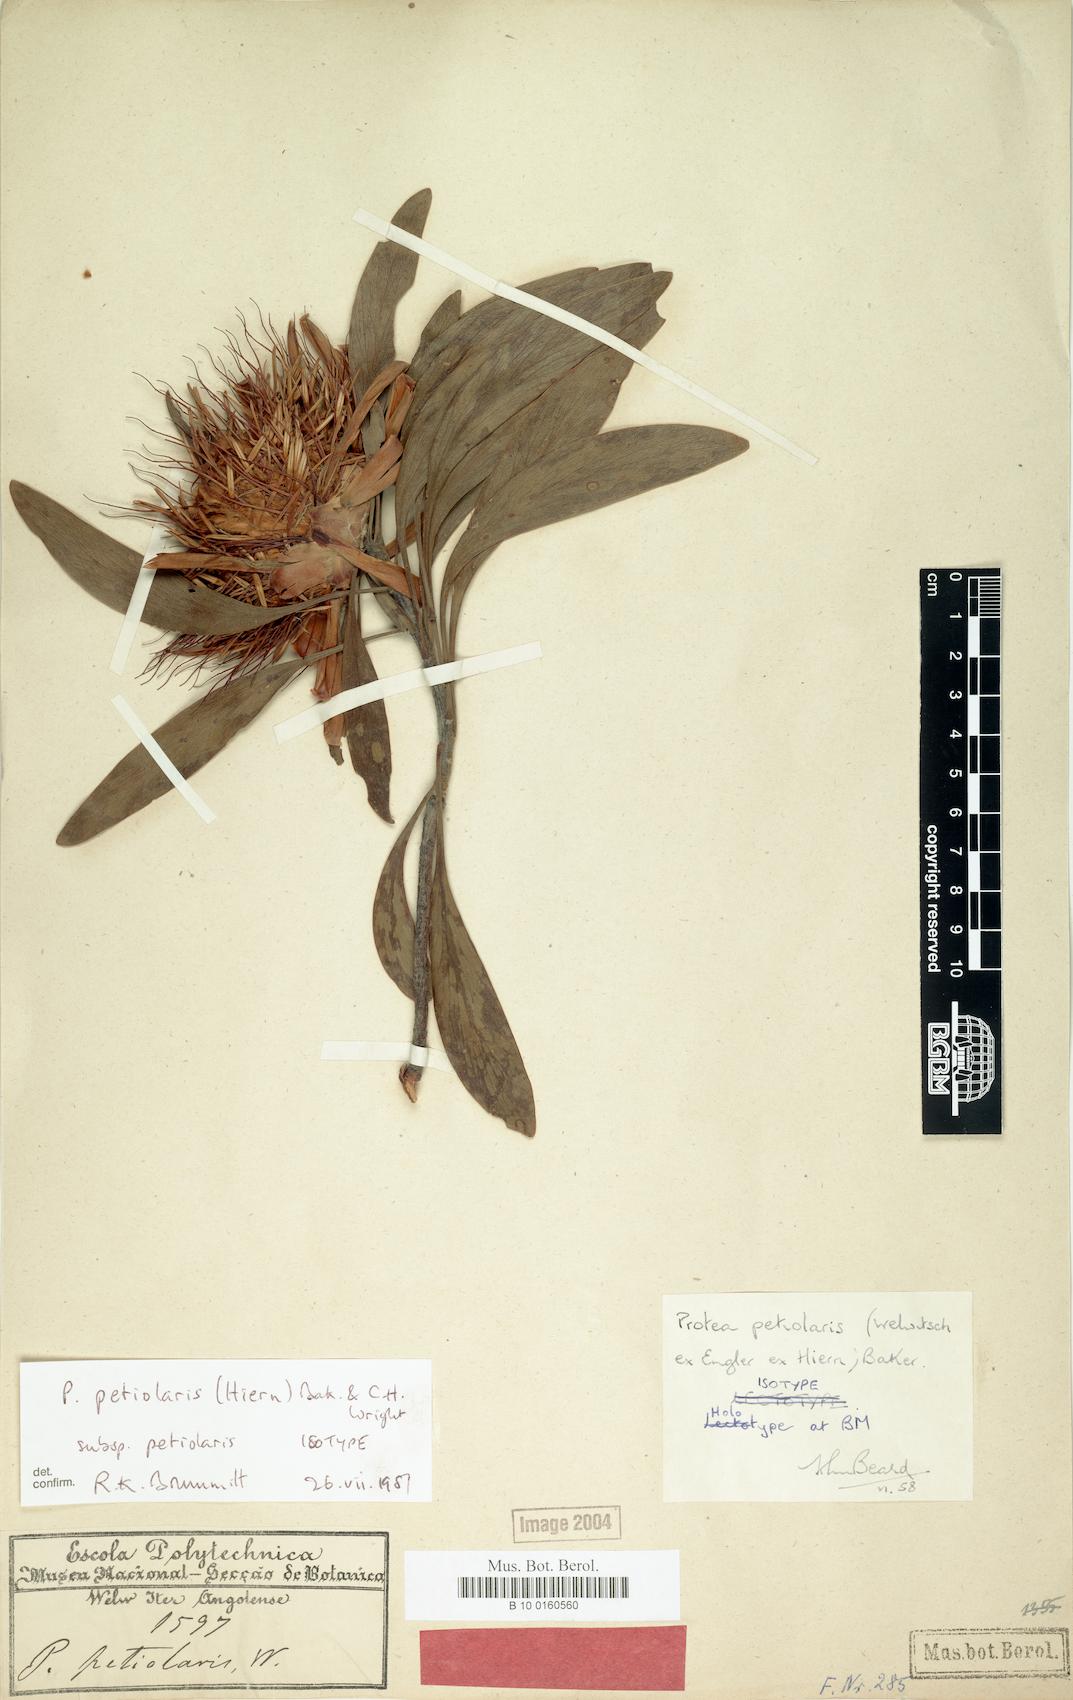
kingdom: Plantae
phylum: Tracheophyta
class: Magnoliopsida
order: Proteales
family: Proteaceae
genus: Protea
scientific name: Protea petiolaris
